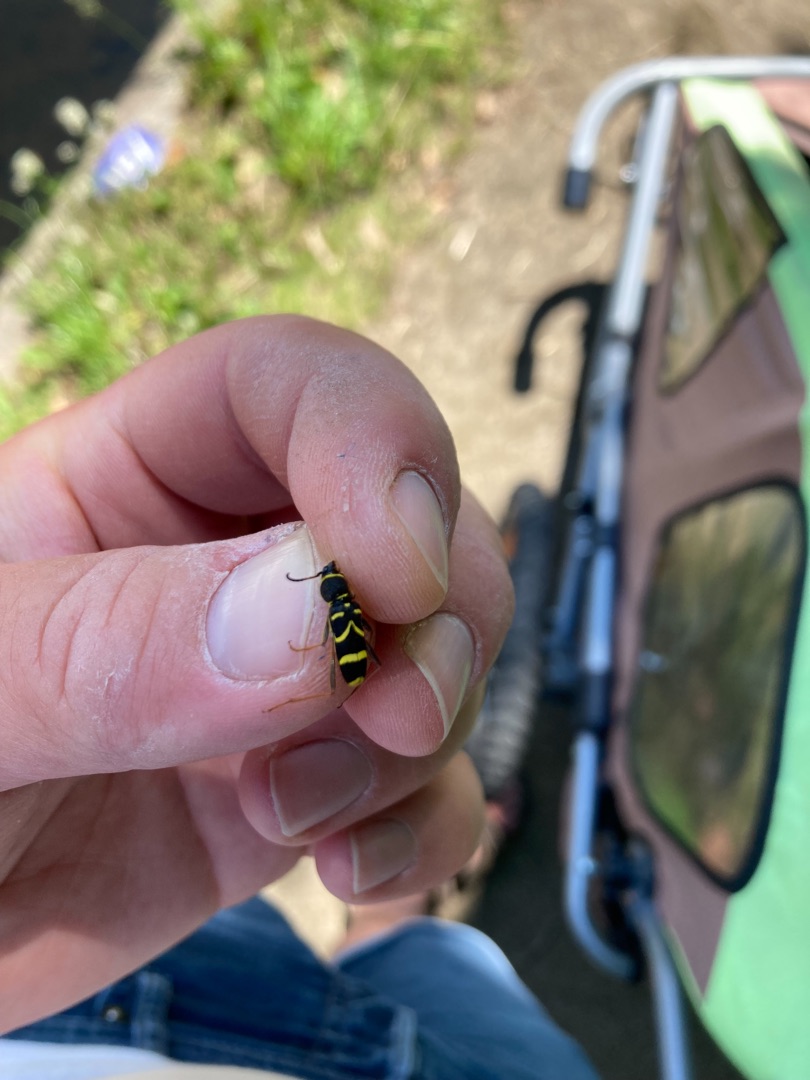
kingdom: Animalia
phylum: Arthropoda
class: Insecta
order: Coleoptera
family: Cerambycidae
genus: Clytus
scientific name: Clytus arietis
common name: Lille hvepsebuk
